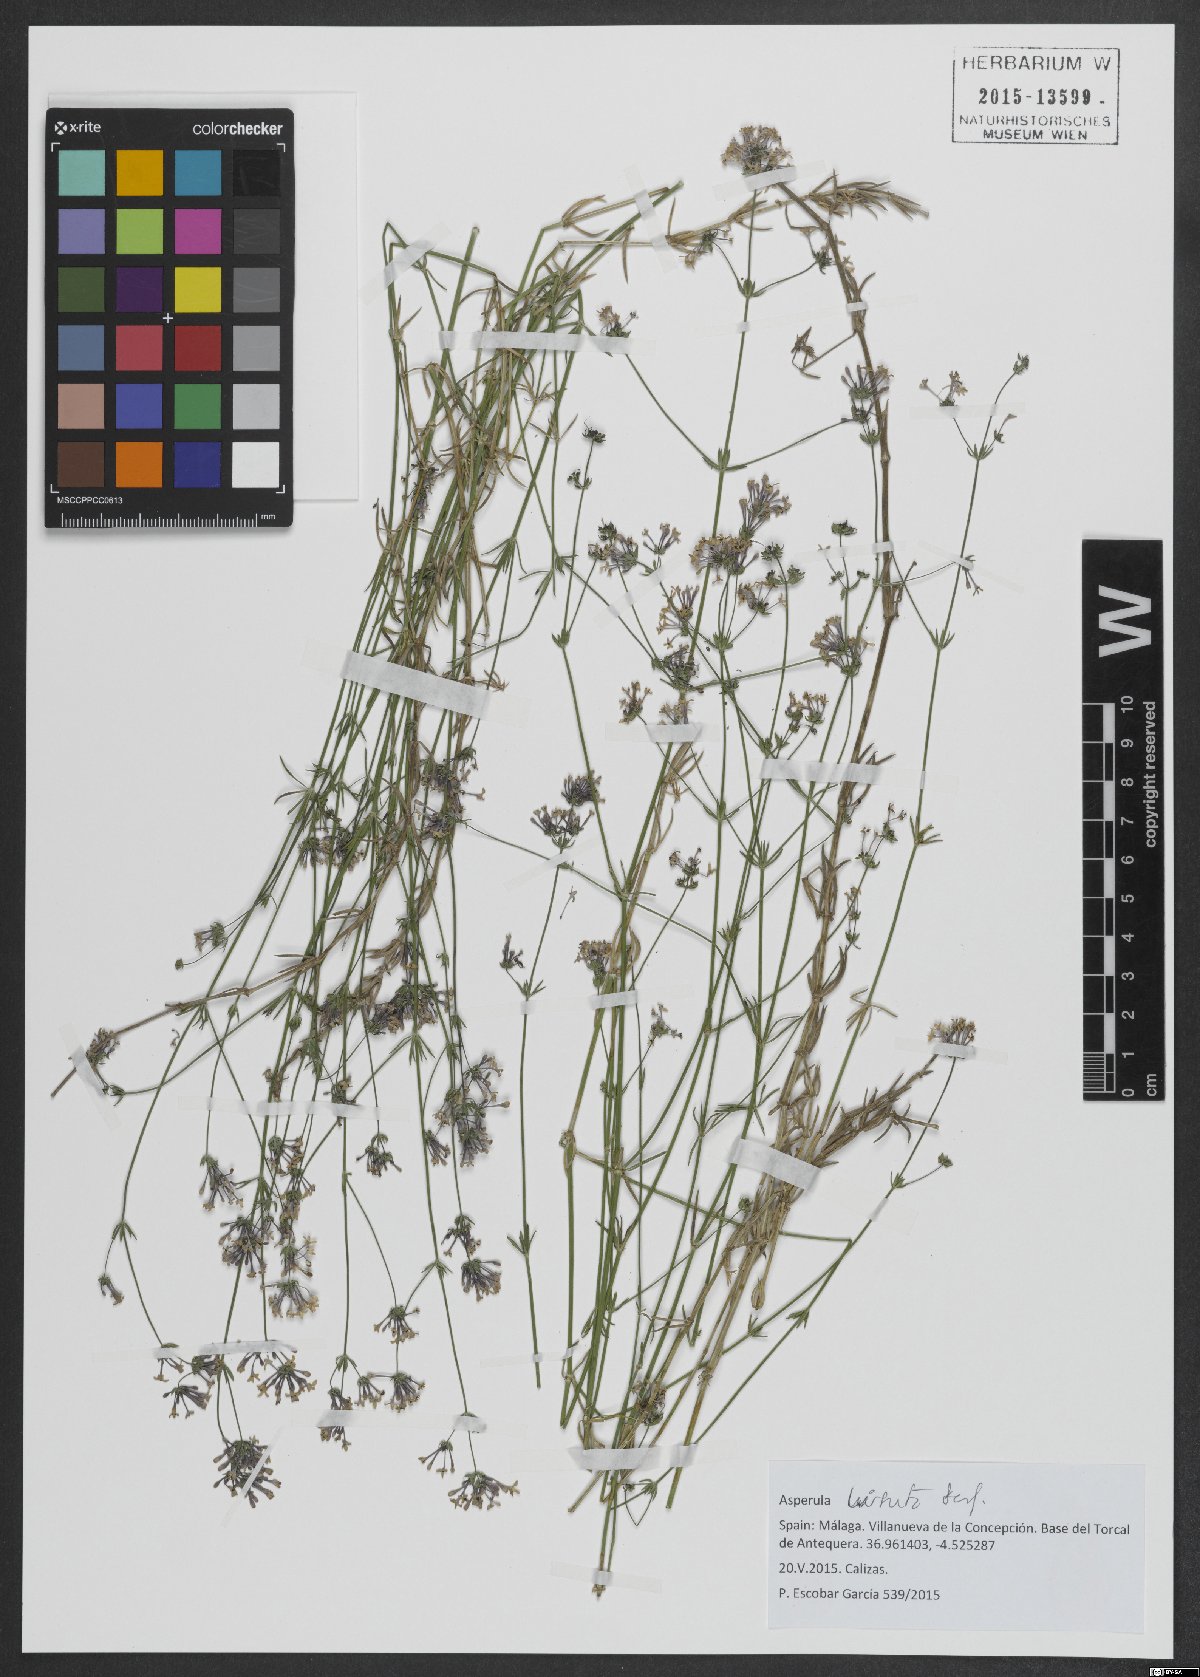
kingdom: Plantae
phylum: Tracheophyta
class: Magnoliopsida
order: Gentianales
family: Rubiaceae
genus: Hexaphylla
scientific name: Hexaphylla hirsuta
